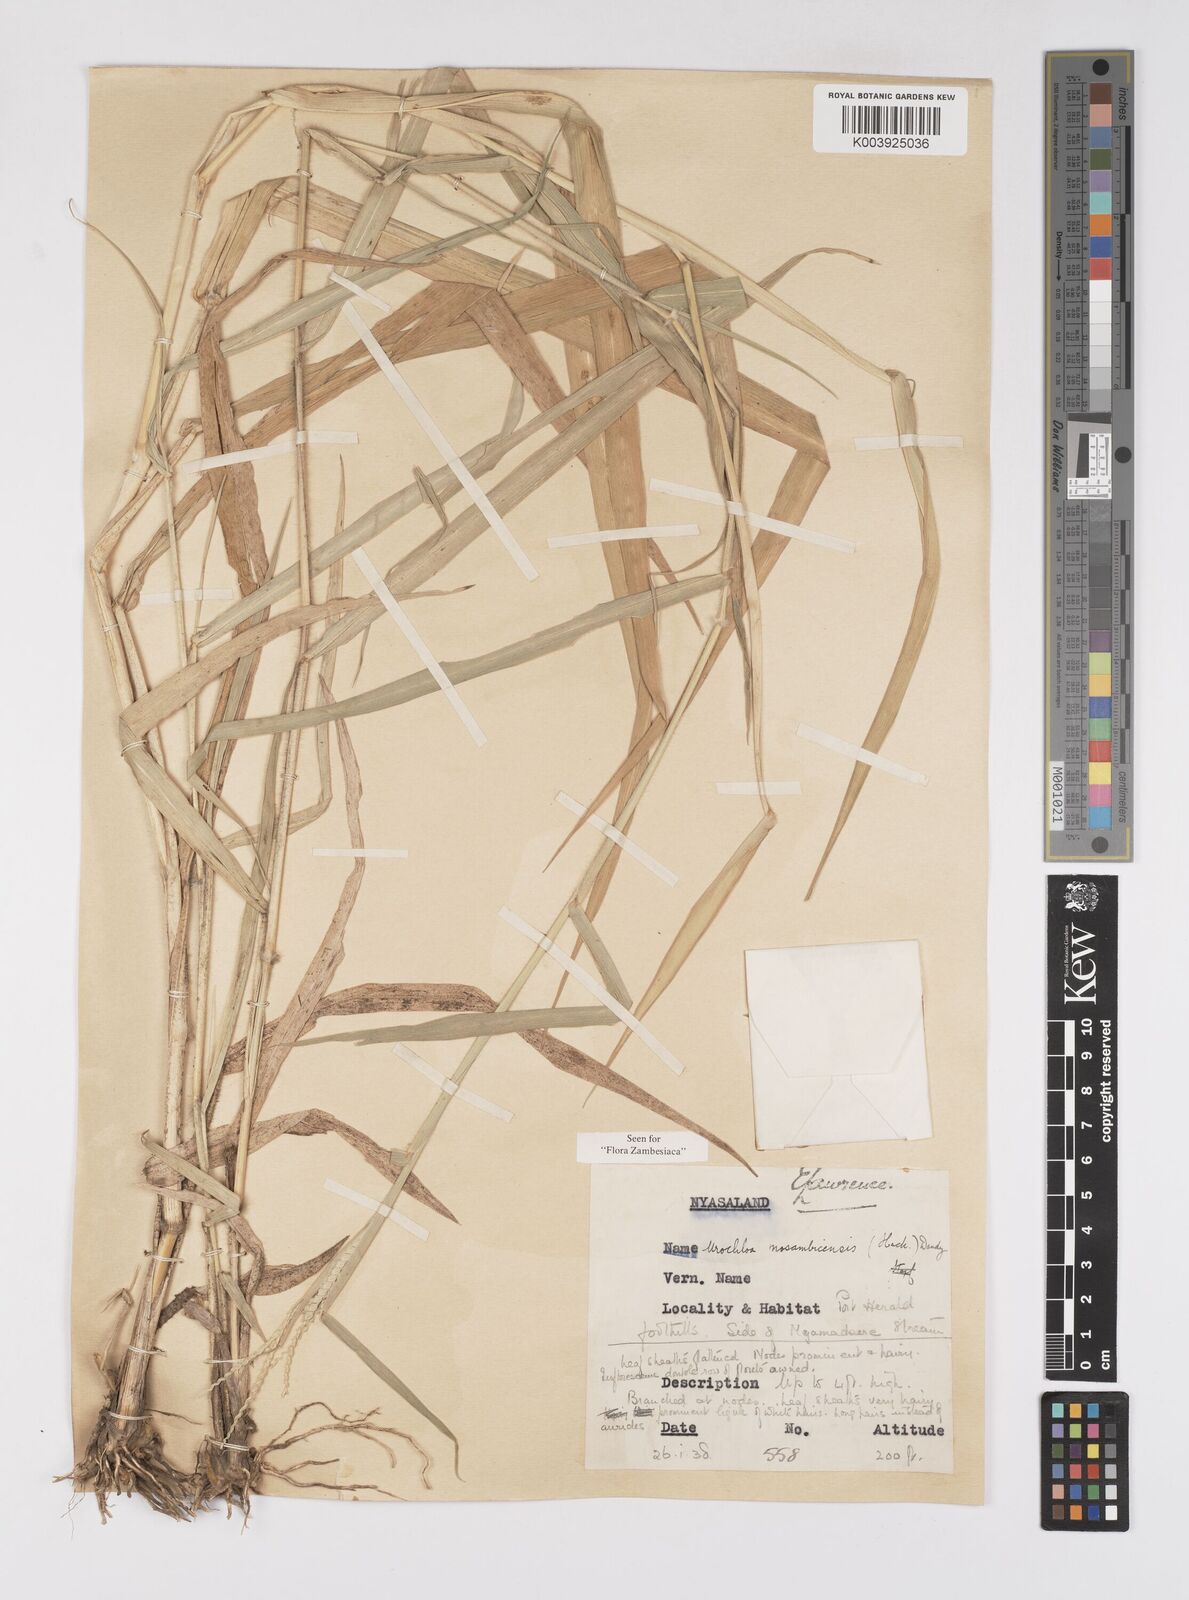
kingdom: Plantae
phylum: Tracheophyta
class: Liliopsida
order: Poales
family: Poaceae
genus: Urochloa
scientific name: Urochloa trichopus
